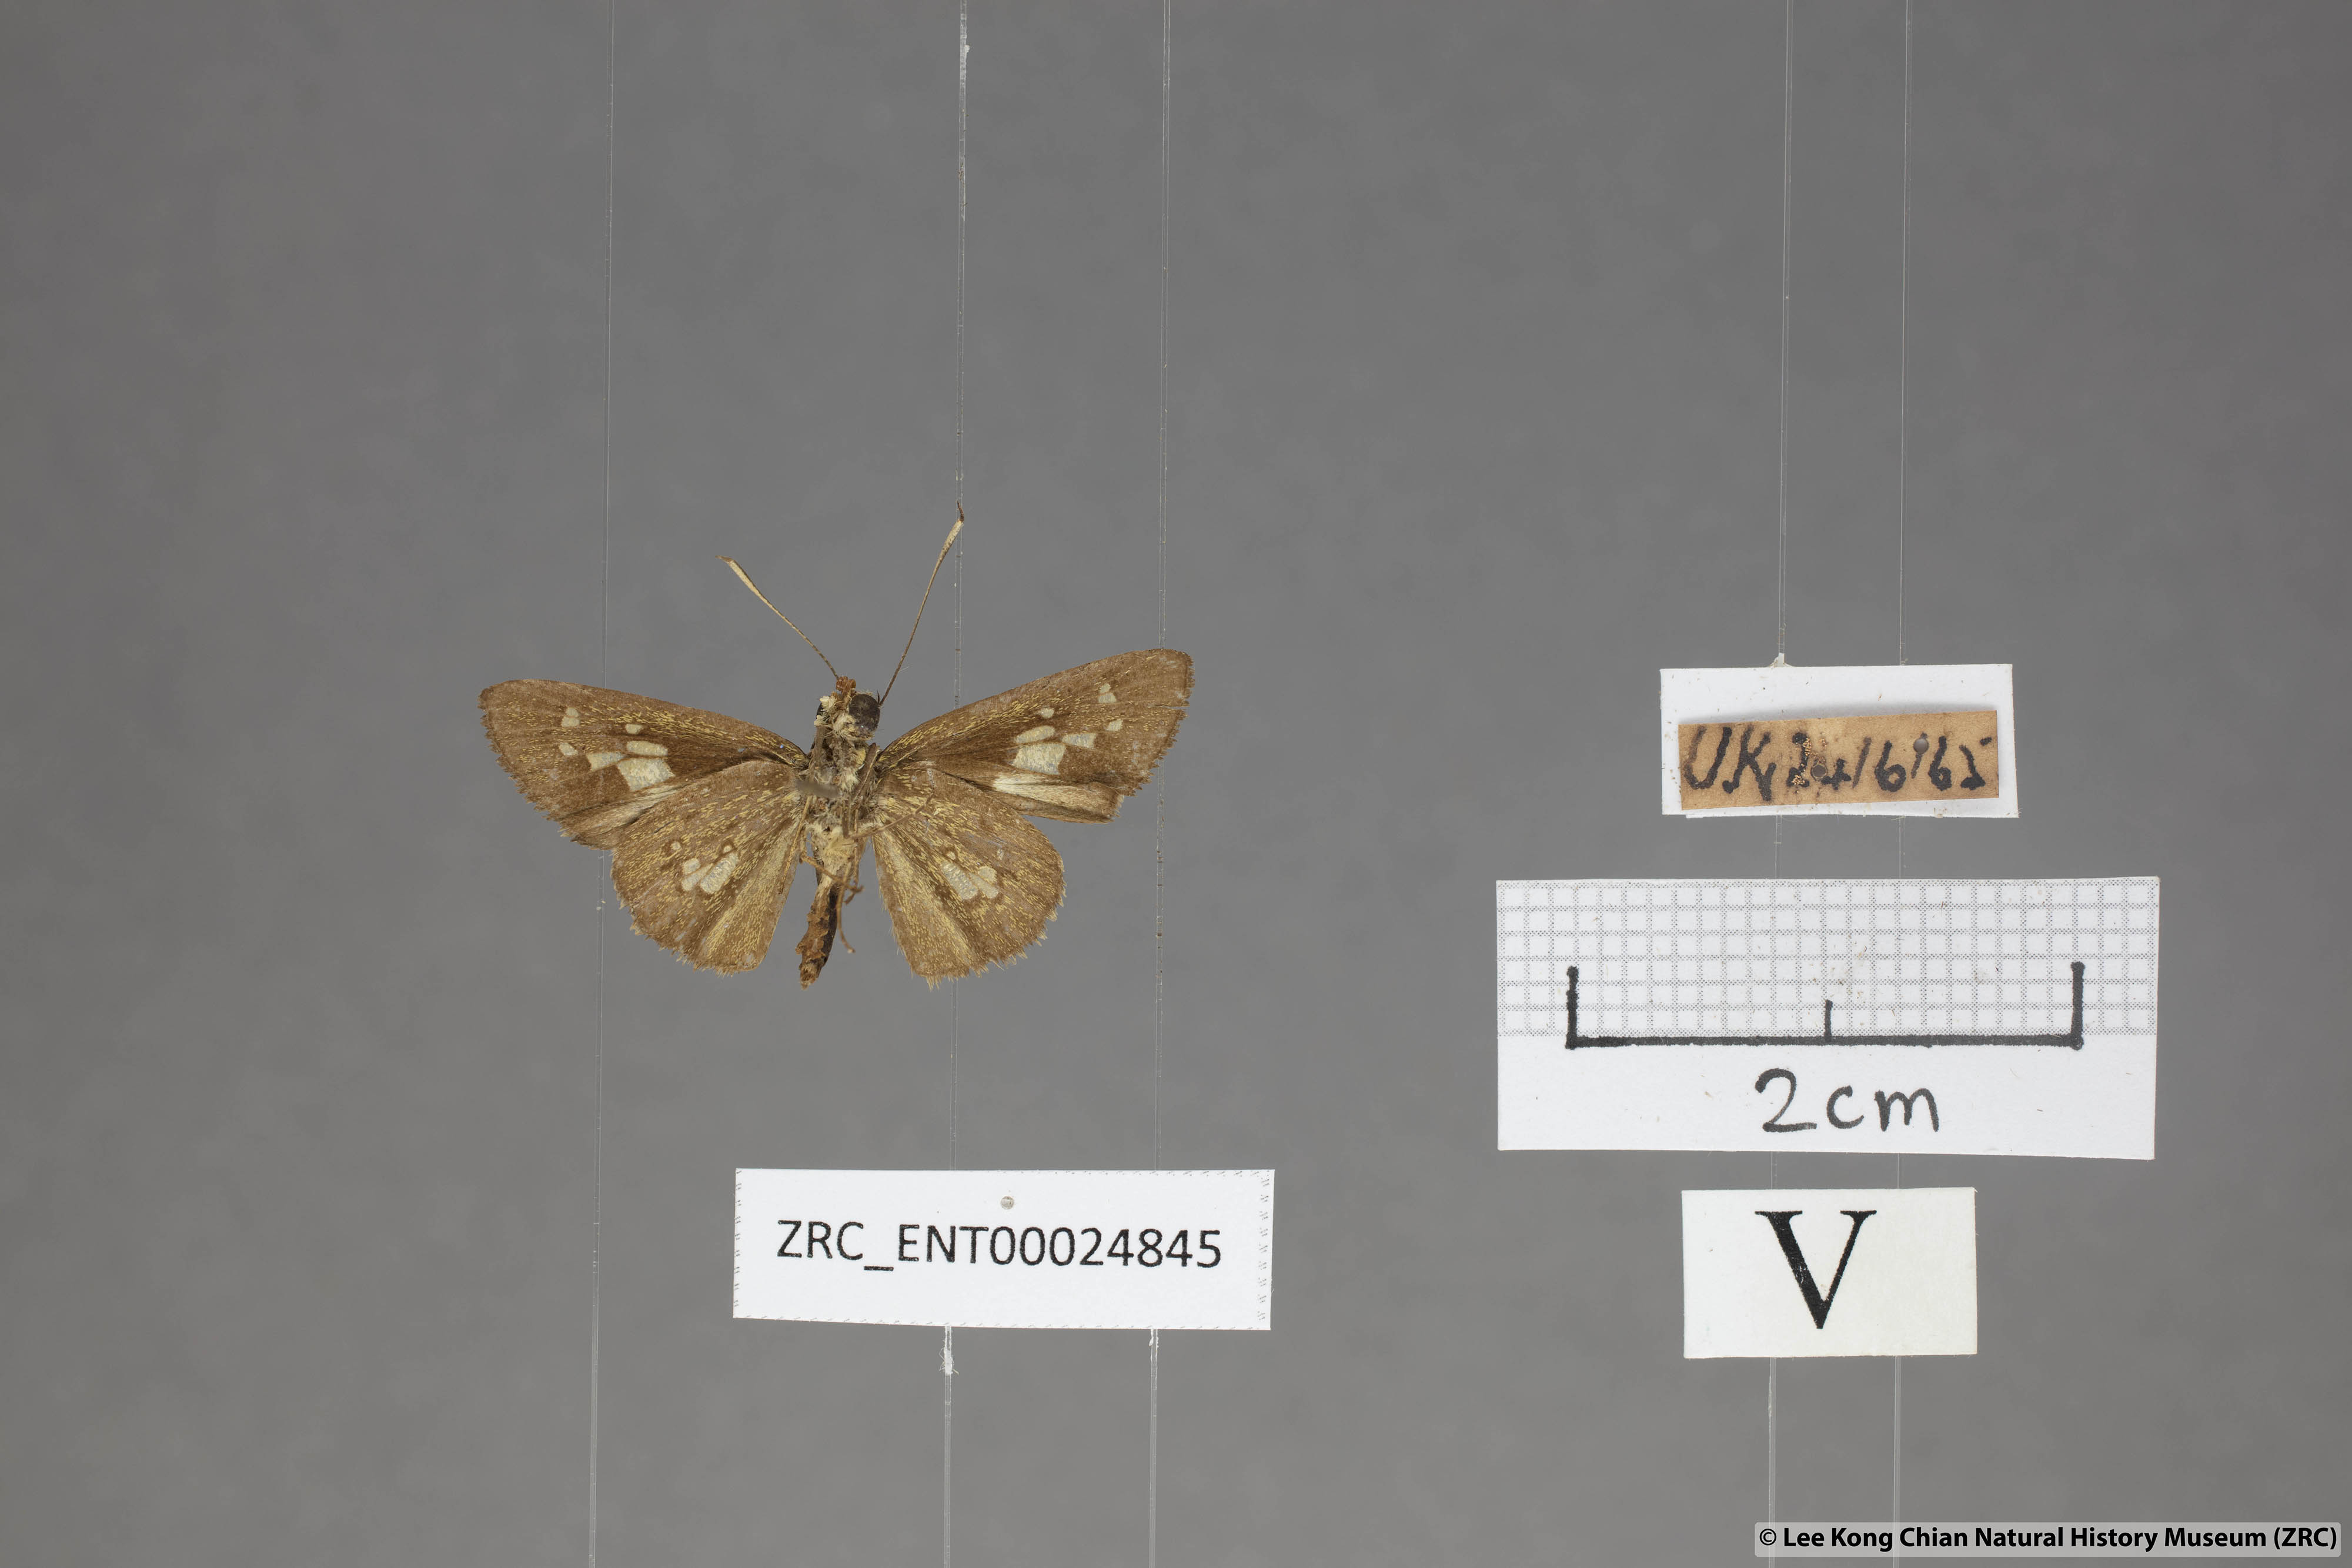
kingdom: Animalia
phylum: Arthropoda
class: Insecta
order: Lepidoptera
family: Hesperiidae
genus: Isma
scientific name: Isma bononia
